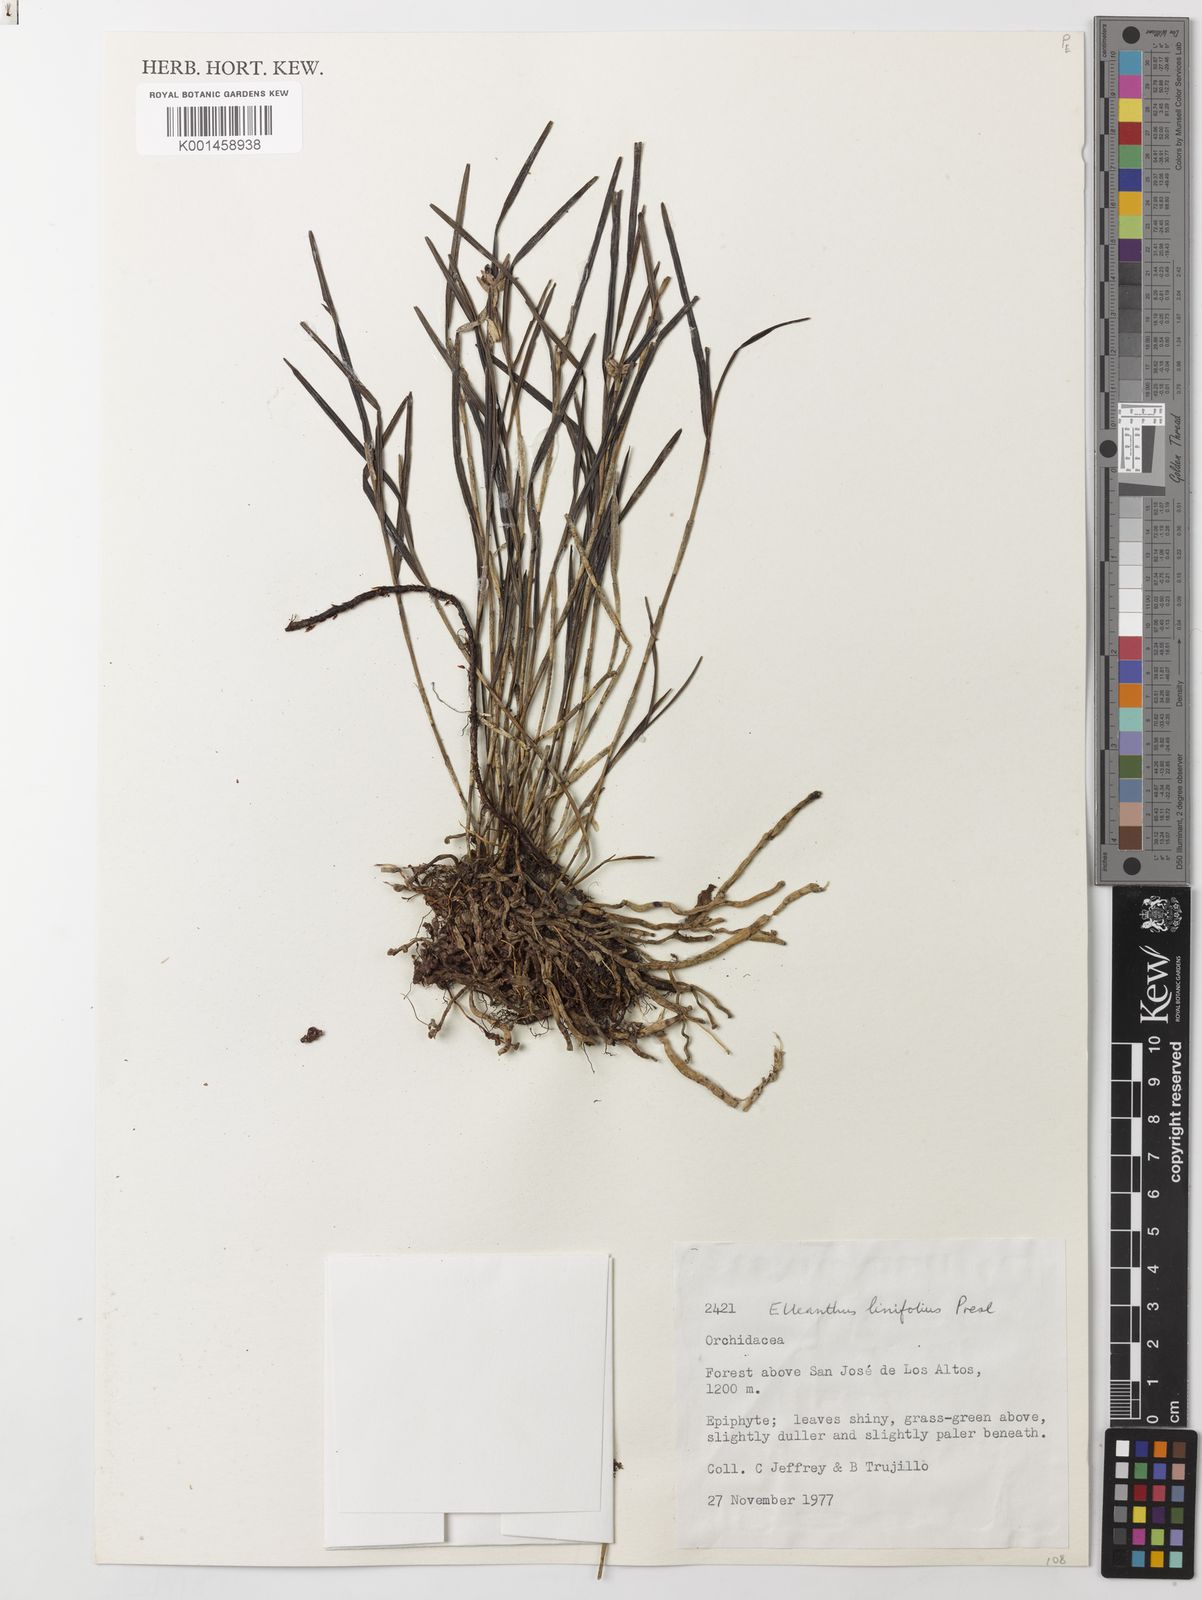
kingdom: Plantae
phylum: Tracheophyta
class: Liliopsida
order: Asparagales
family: Orchidaceae
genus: Elleanthus
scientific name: Elleanthus linifolius
